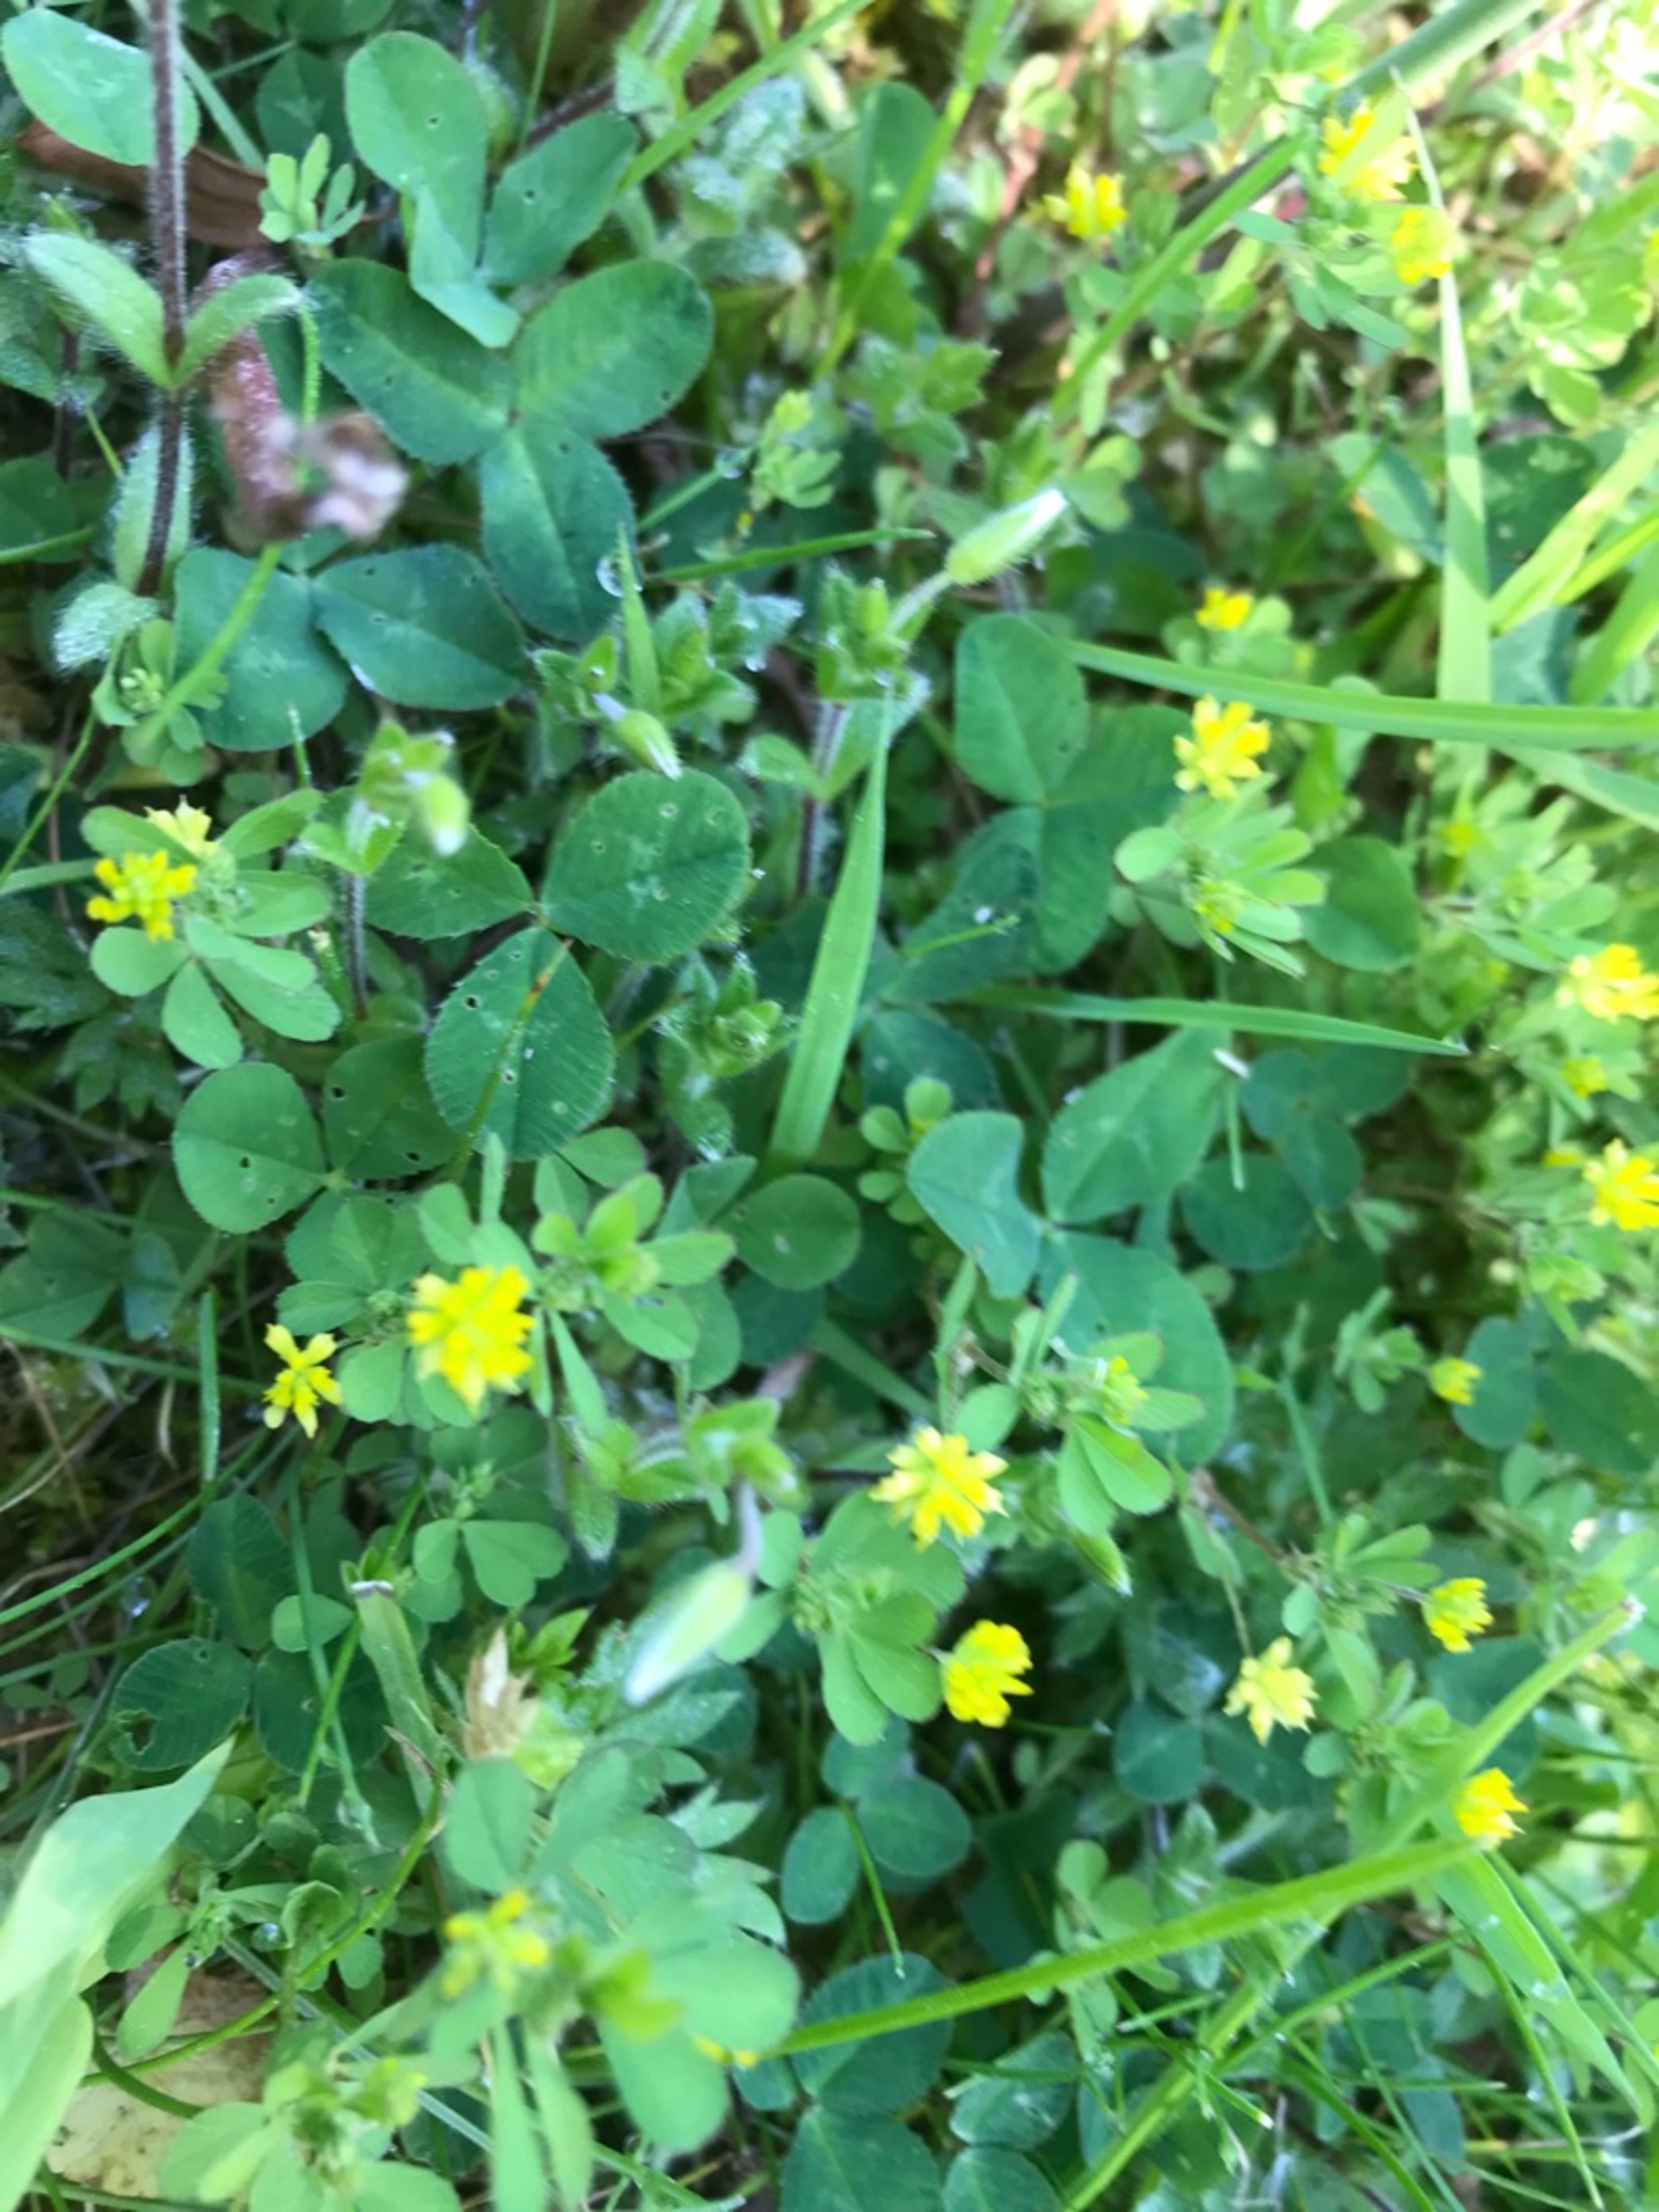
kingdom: Plantae
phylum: Tracheophyta
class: Magnoliopsida
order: Fabales
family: Fabaceae
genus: Trifolium
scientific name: Trifolium dubium
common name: Fin kløver
